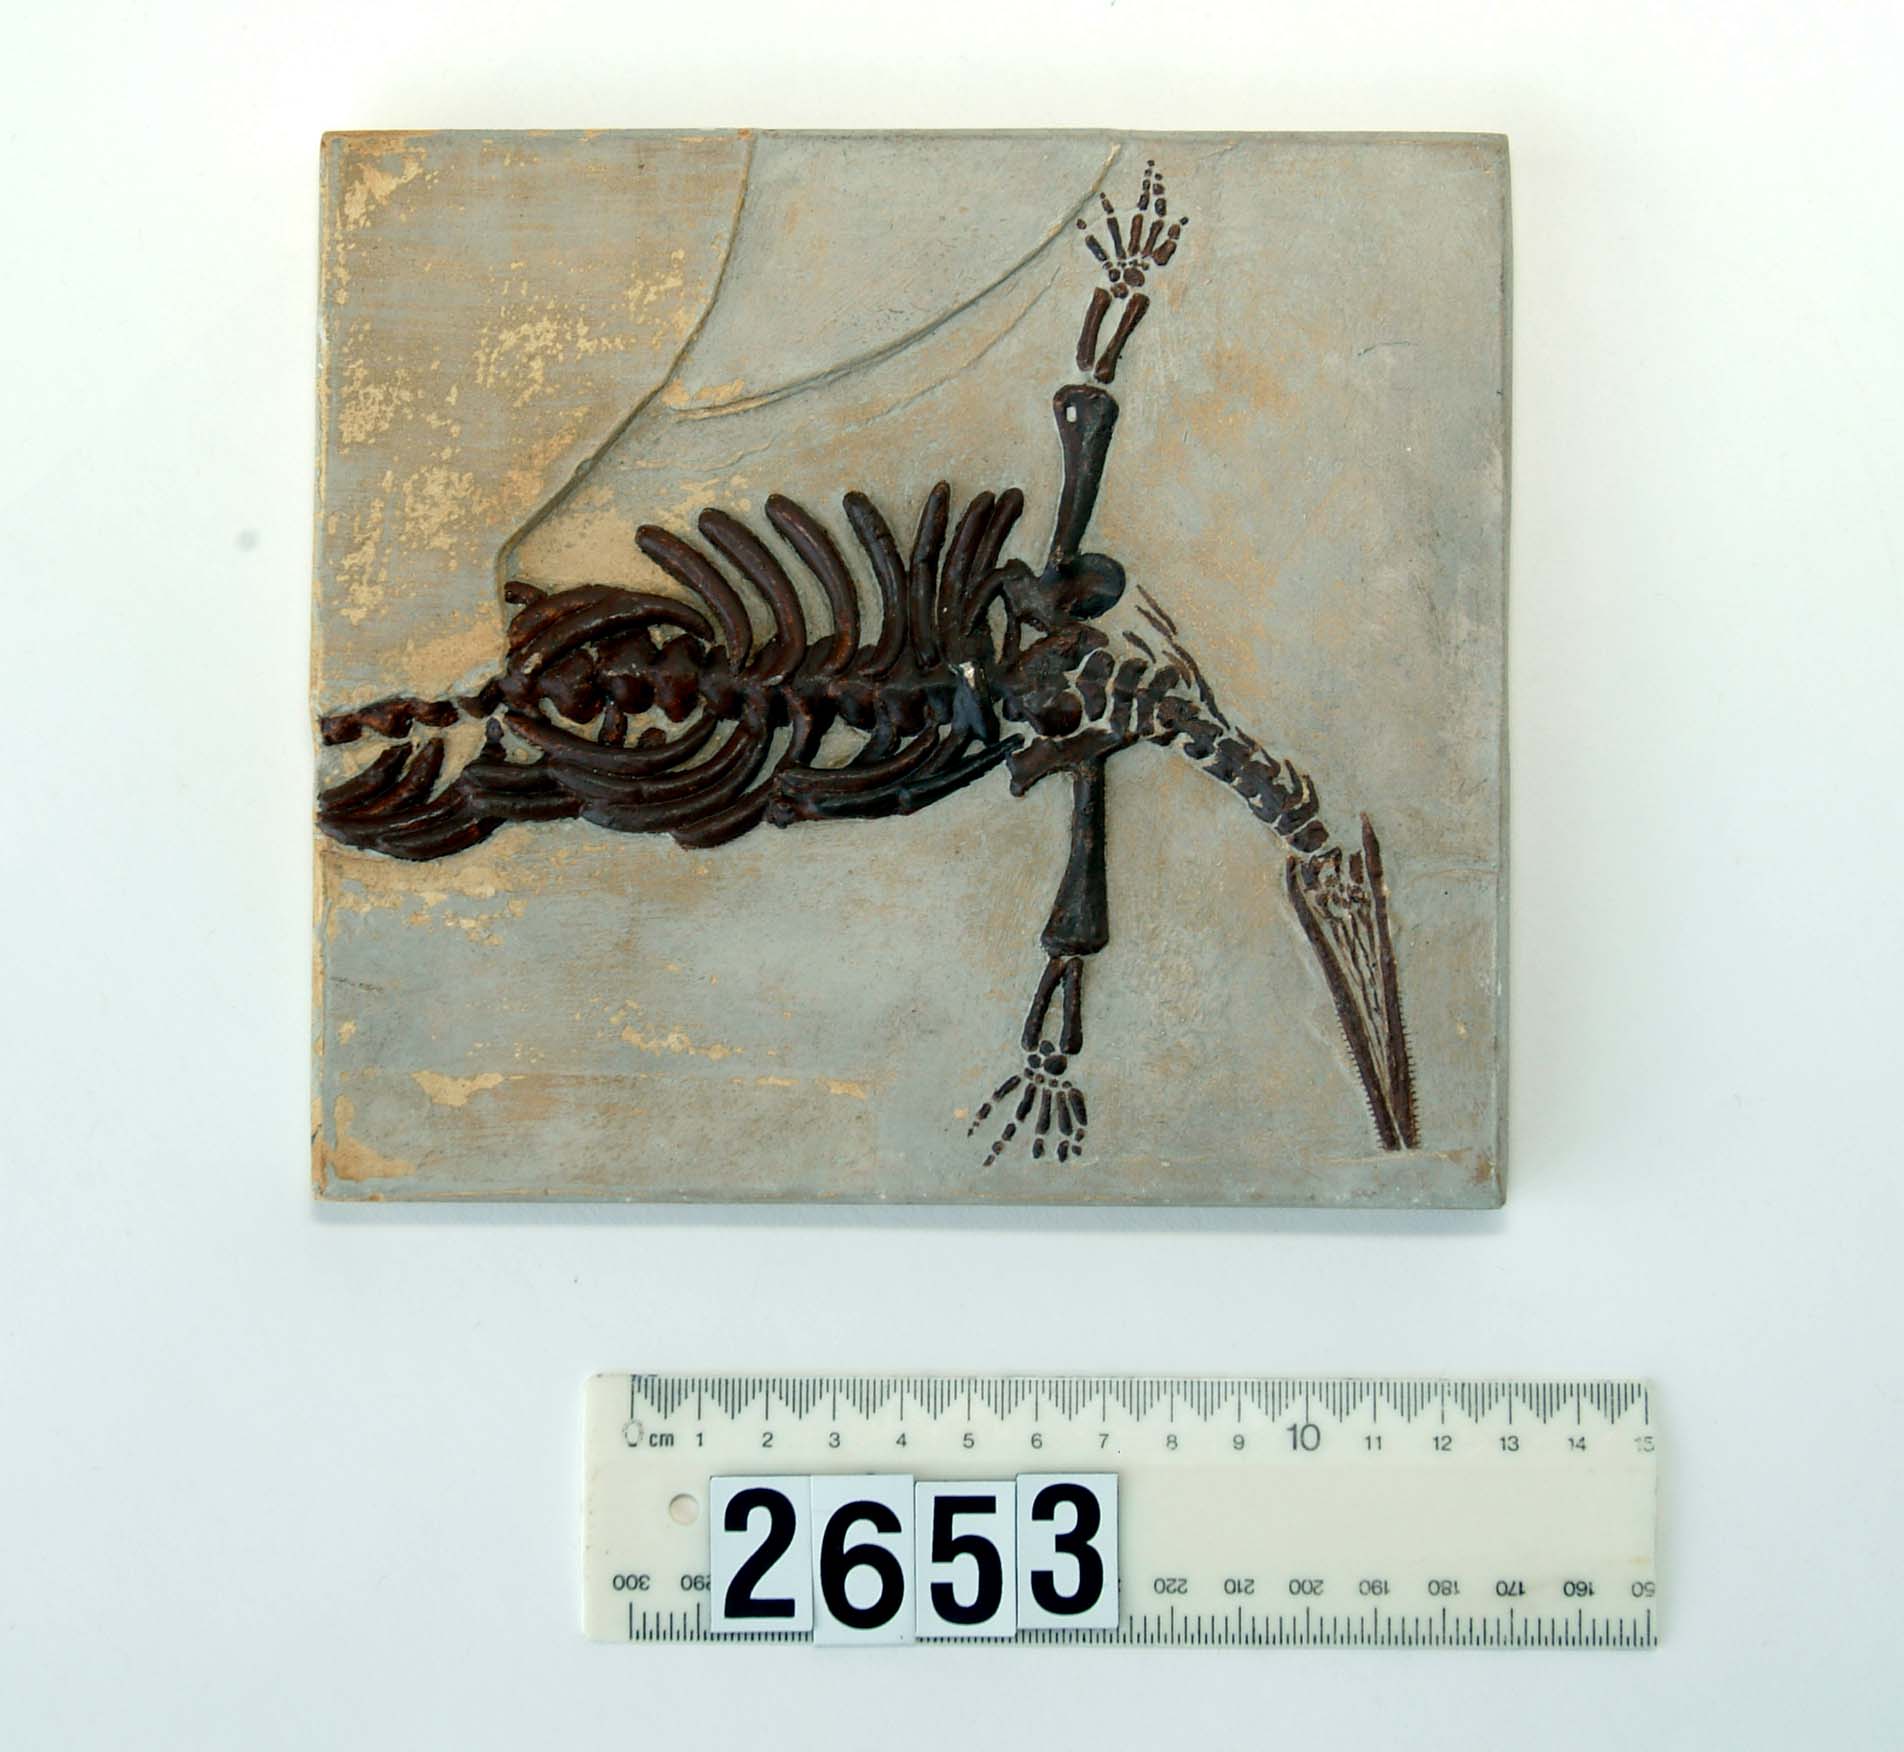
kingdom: Animalia
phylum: Chordata
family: Mesosauridae
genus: Mesosaurus
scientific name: Mesosaurus tenuidens
